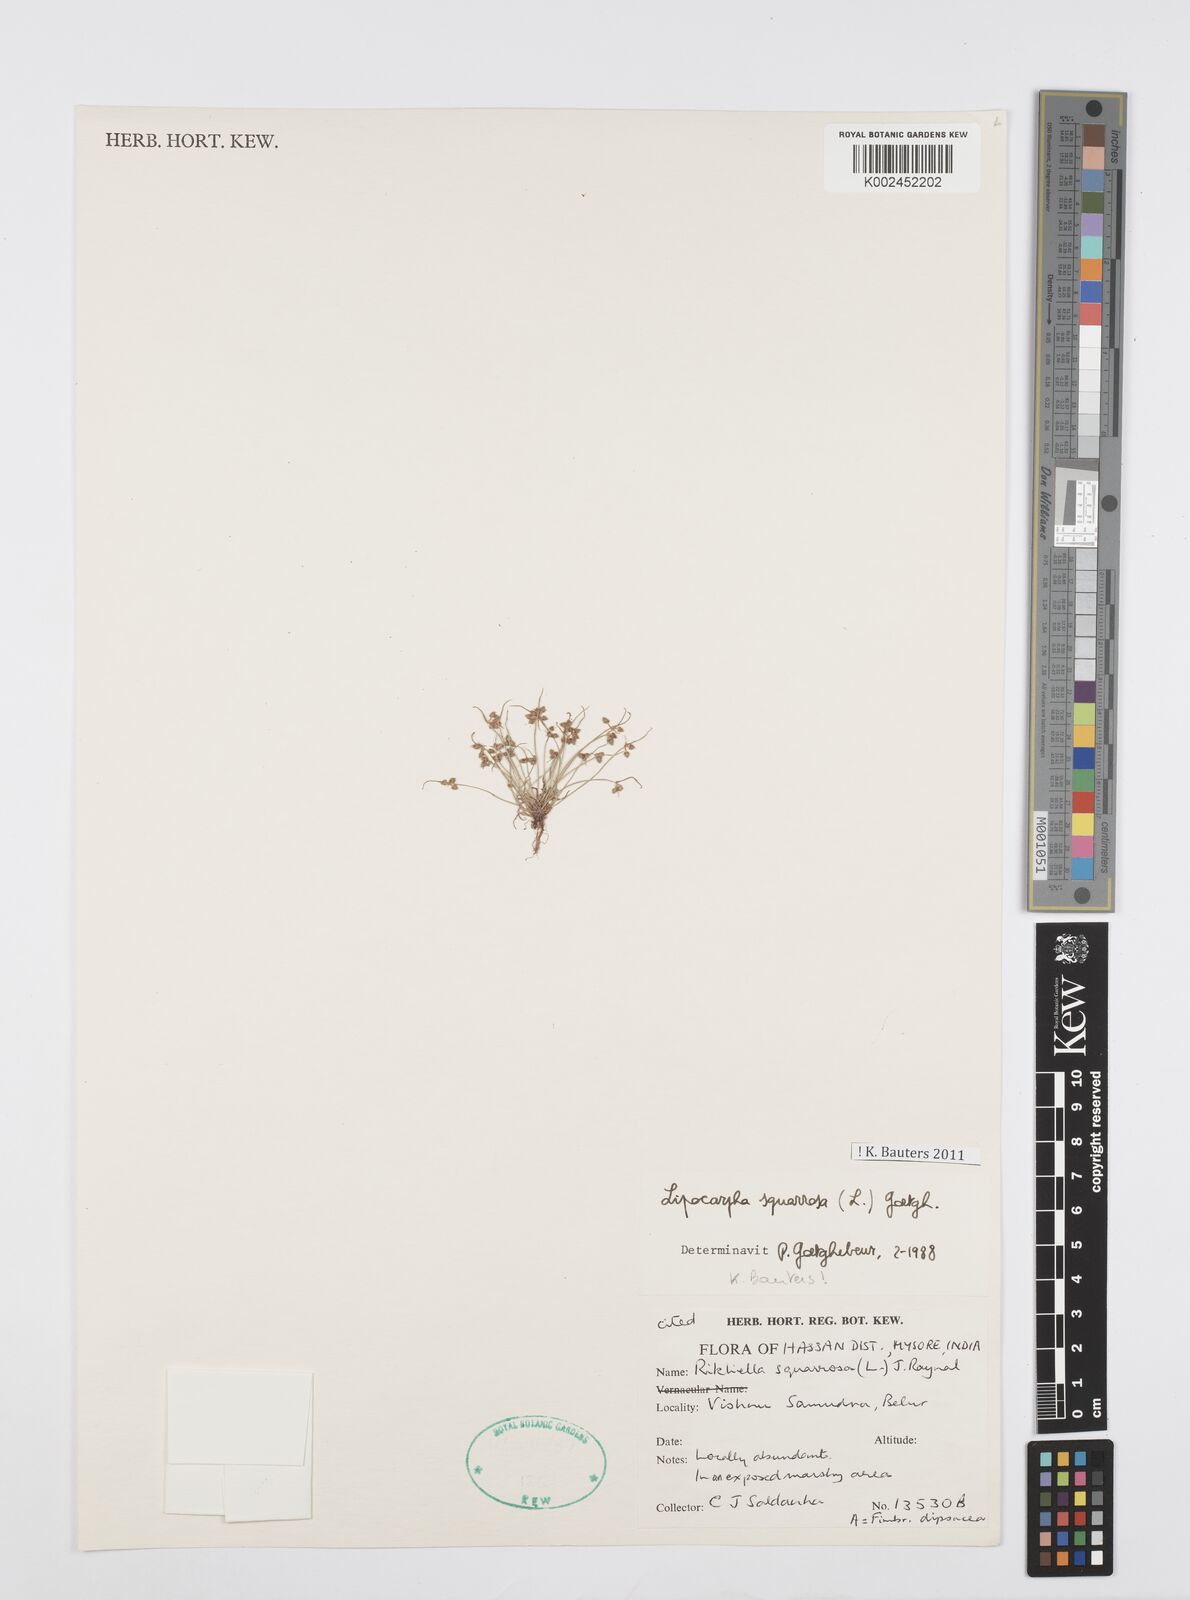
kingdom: Plantae
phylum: Tracheophyta
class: Liliopsida
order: Poales
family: Cyperaceae
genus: Cyperus
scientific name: Cyperus squarrosus
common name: Awned cyperus
